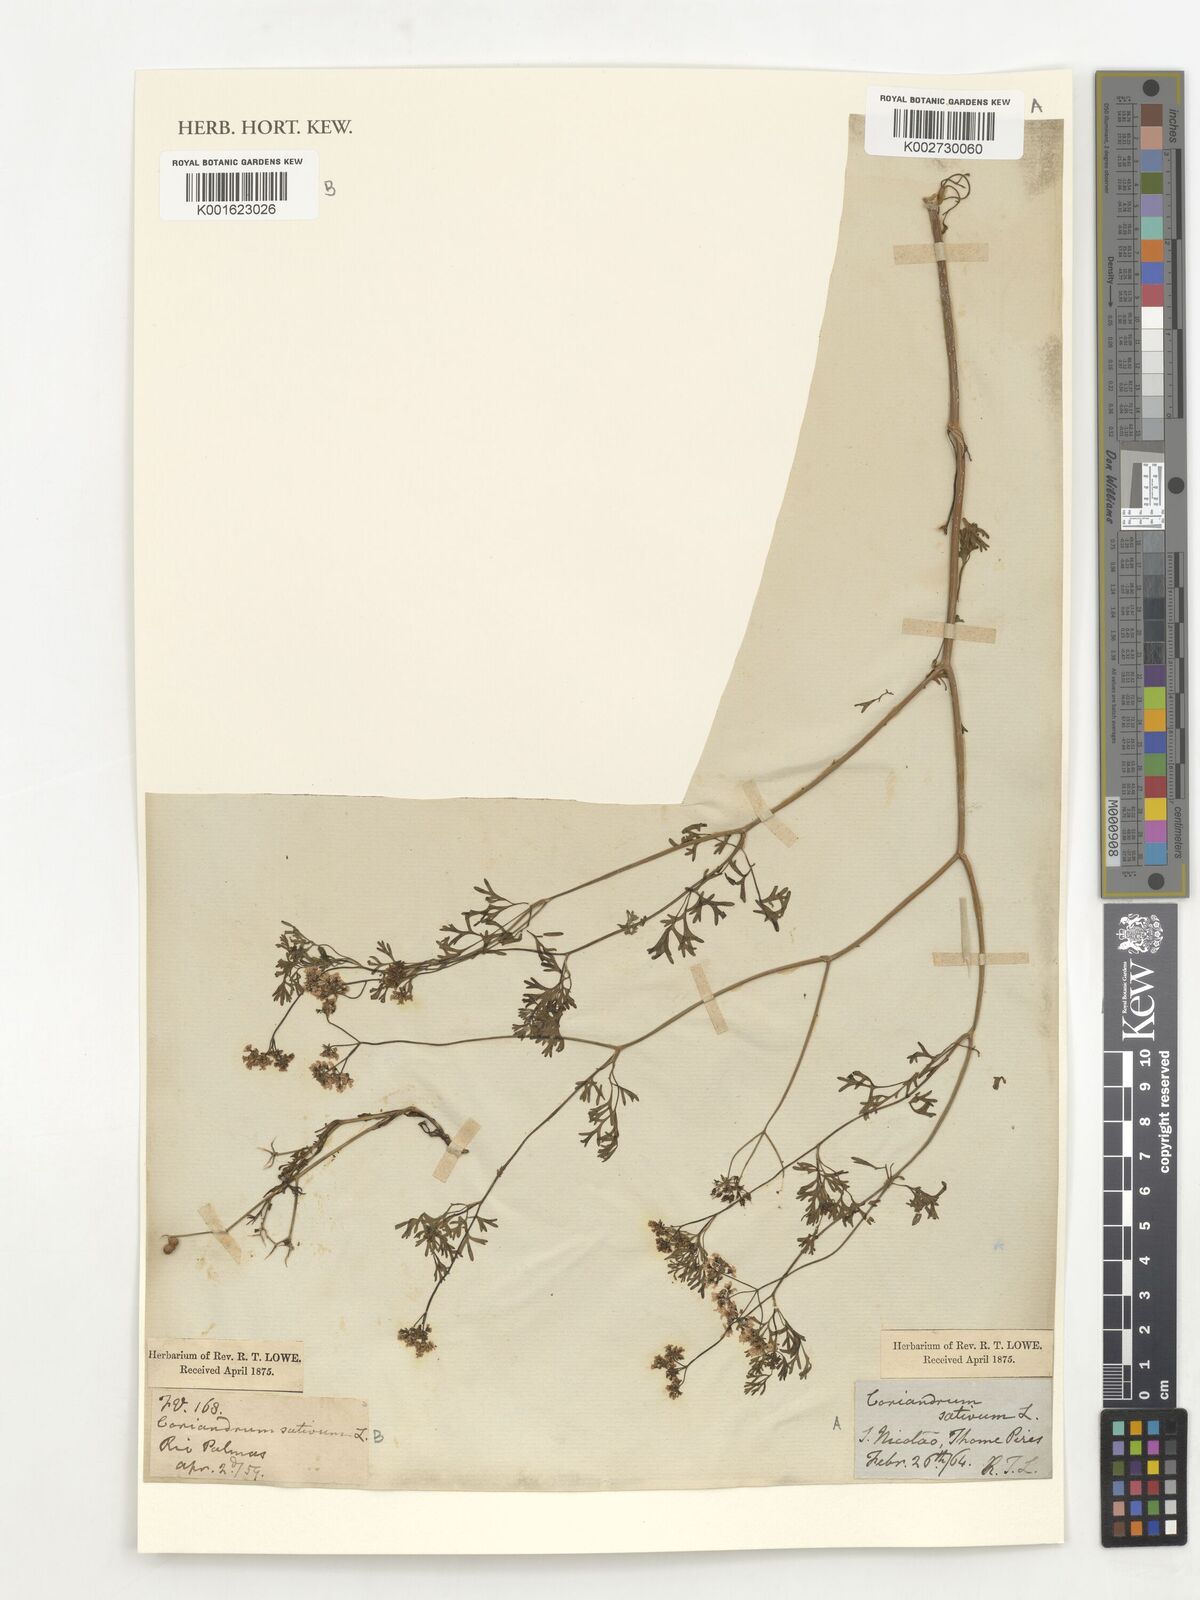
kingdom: Plantae
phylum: Tracheophyta
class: Magnoliopsida
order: Apiales
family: Apiaceae
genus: Coriandrum
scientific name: Coriandrum sativum
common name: Coriander
